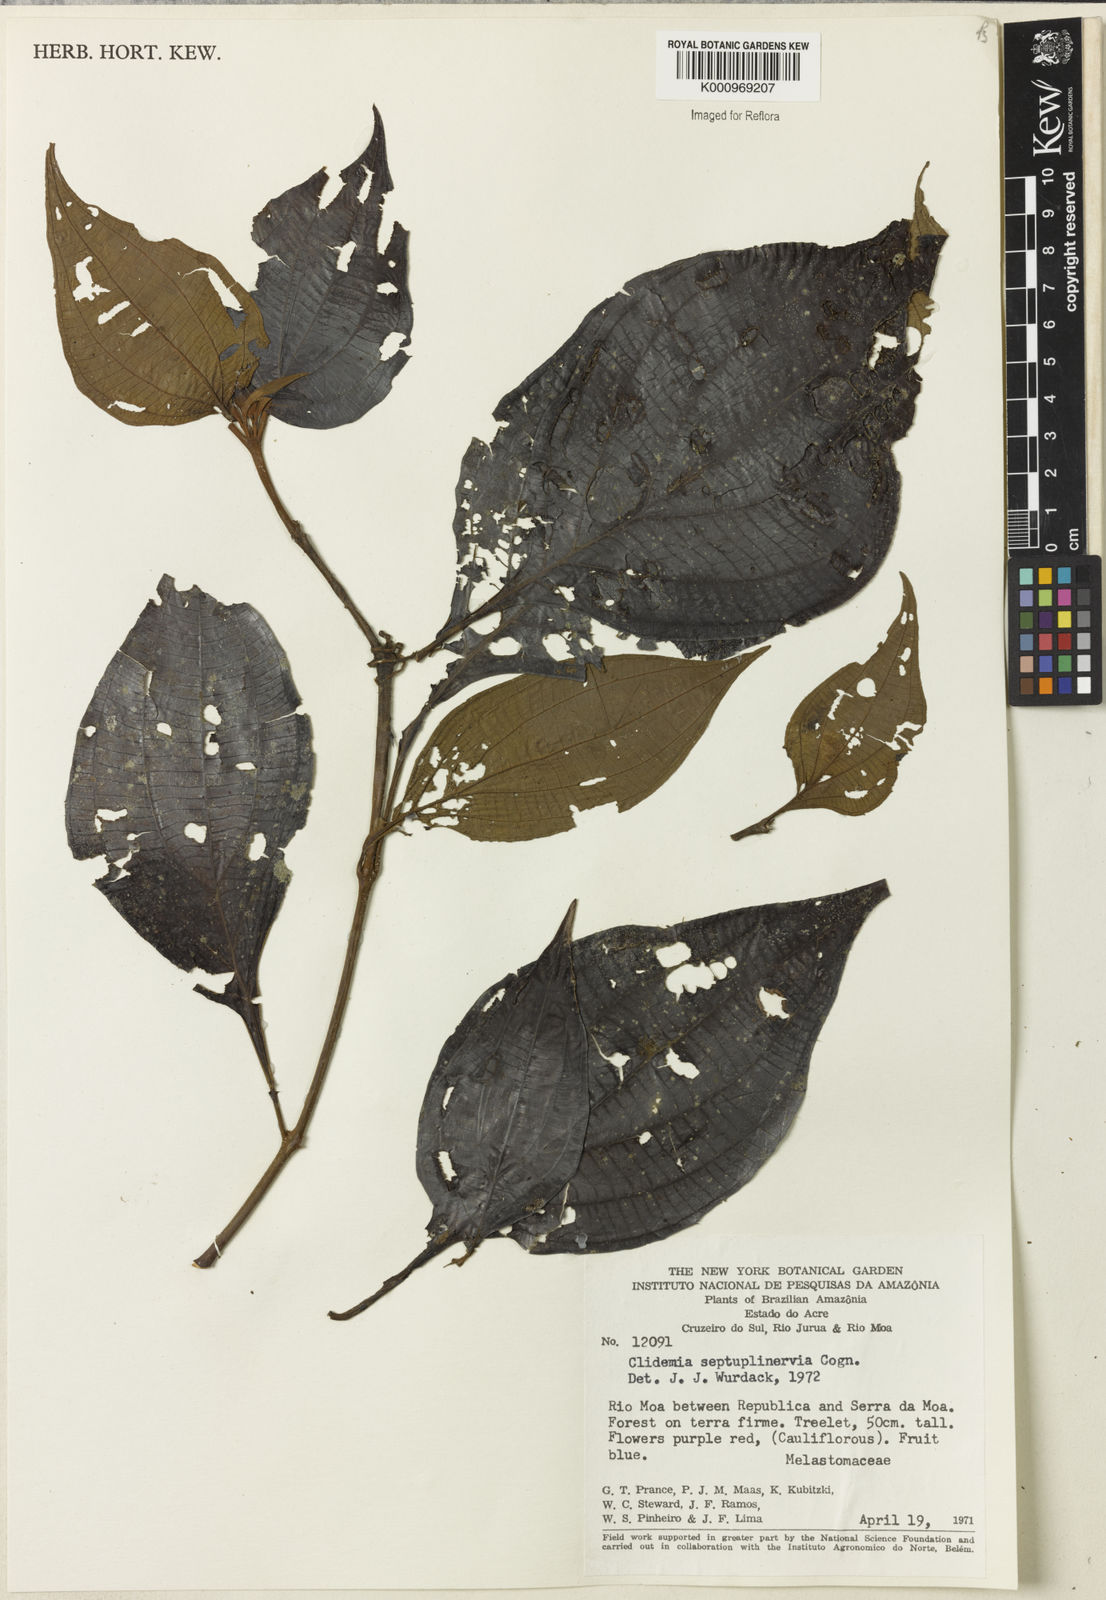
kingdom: Plantae
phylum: Tracheophyta
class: Magnoliopsida
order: Myrtales
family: Melastomataceae
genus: Miconia
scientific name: Miconia trichocalyx
